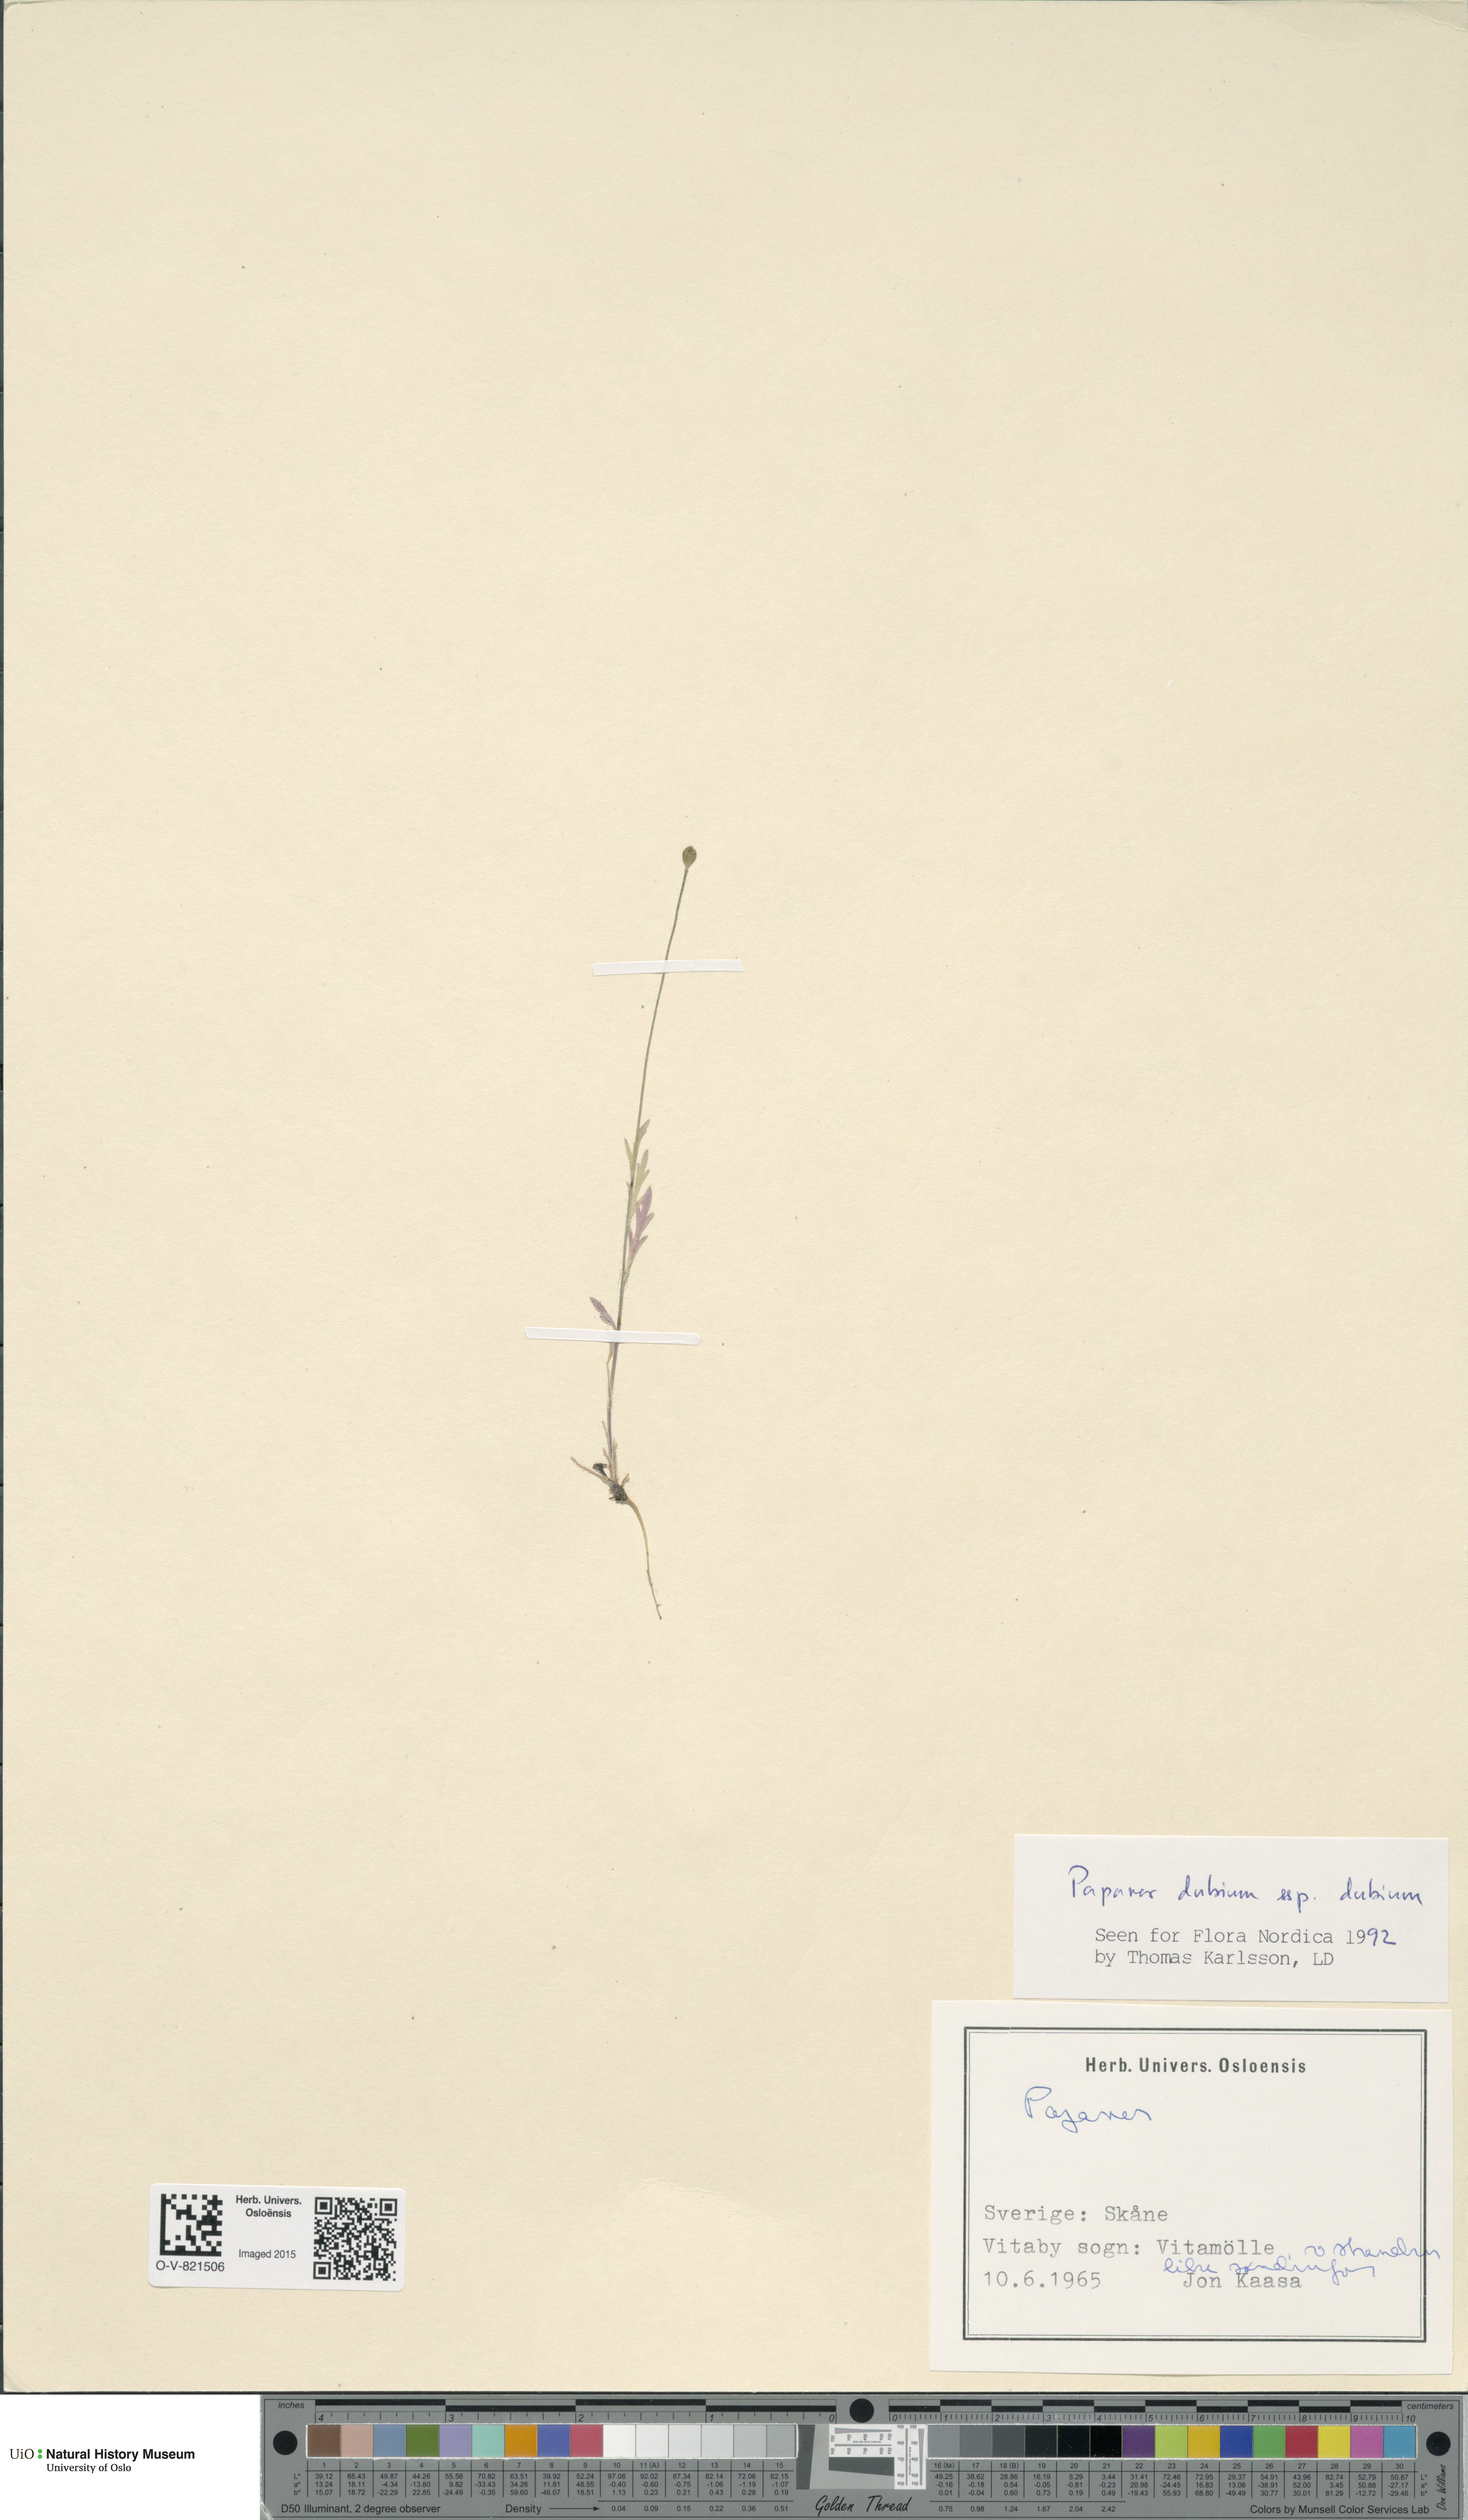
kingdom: Plantae
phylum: Tracheophyta
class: Magnoliopsida
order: Ranunculales
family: Papaveraceae
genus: Papaver
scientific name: Papaver dubium
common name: Long-headed poppy
